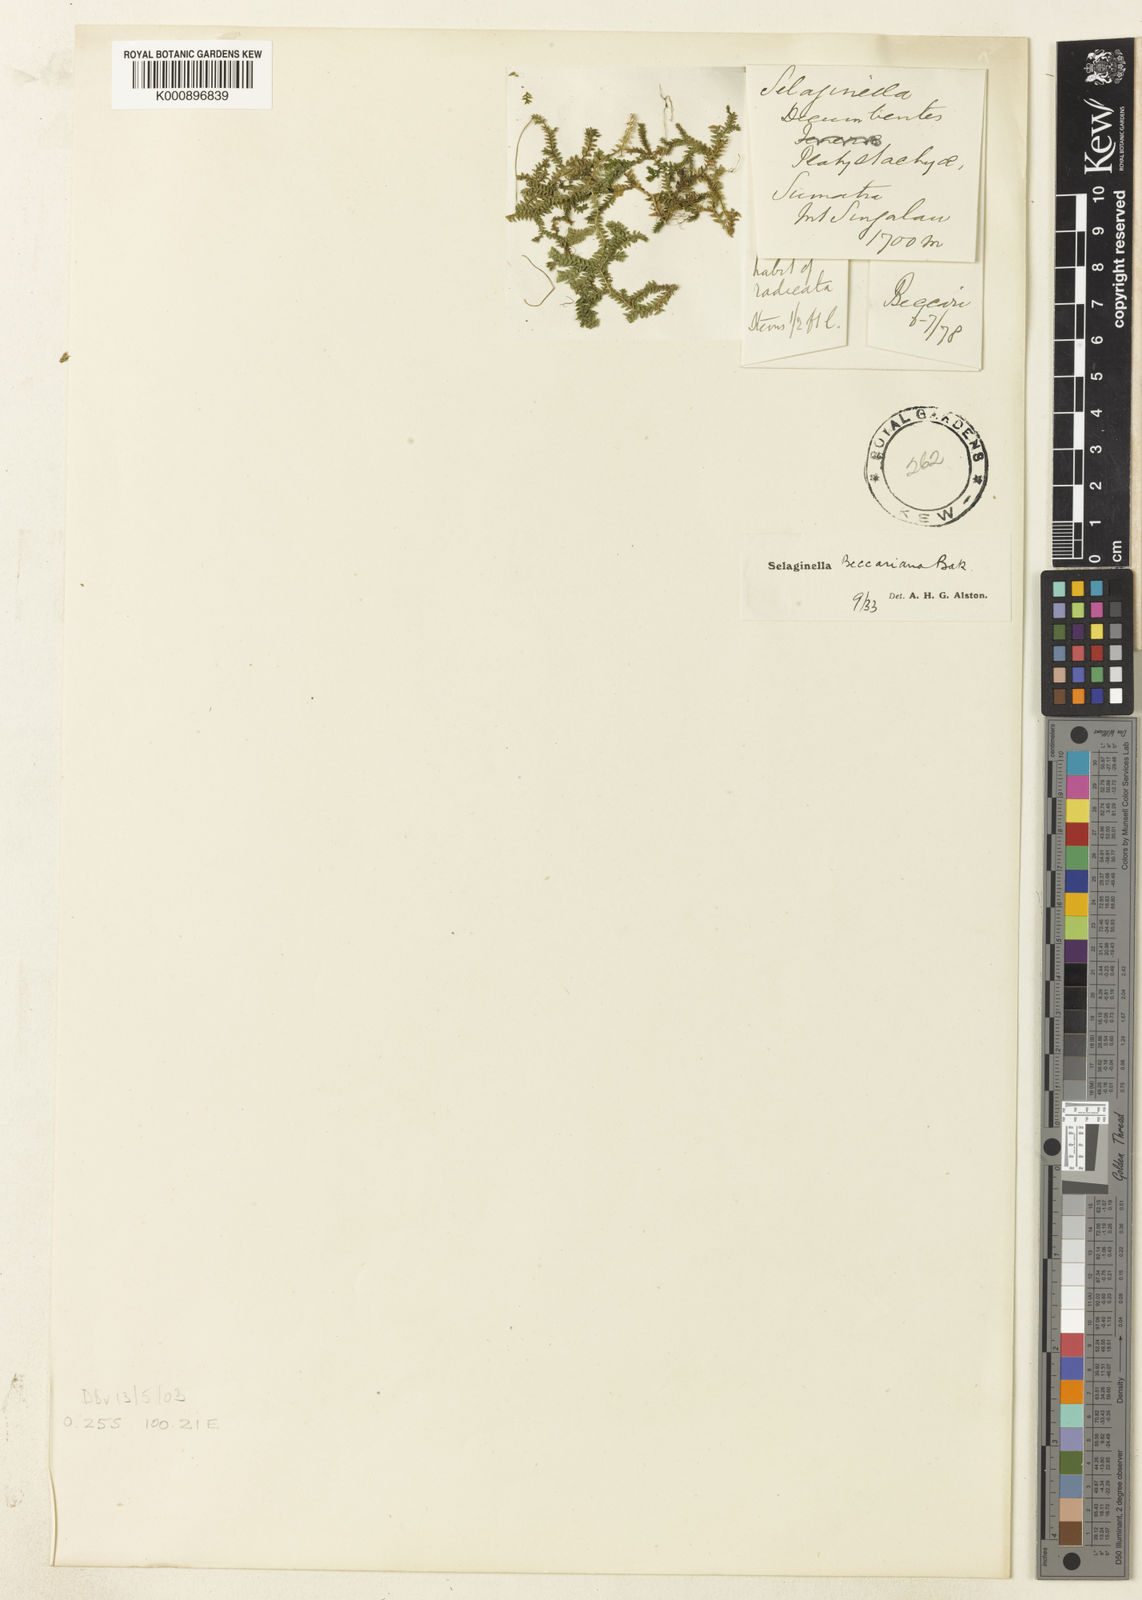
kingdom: Plantae
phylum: Tracheophyta
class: Lycopodiopsida
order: Selaginellales
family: Selaginellaceae
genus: Selaginella
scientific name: Selaginella beccariana
